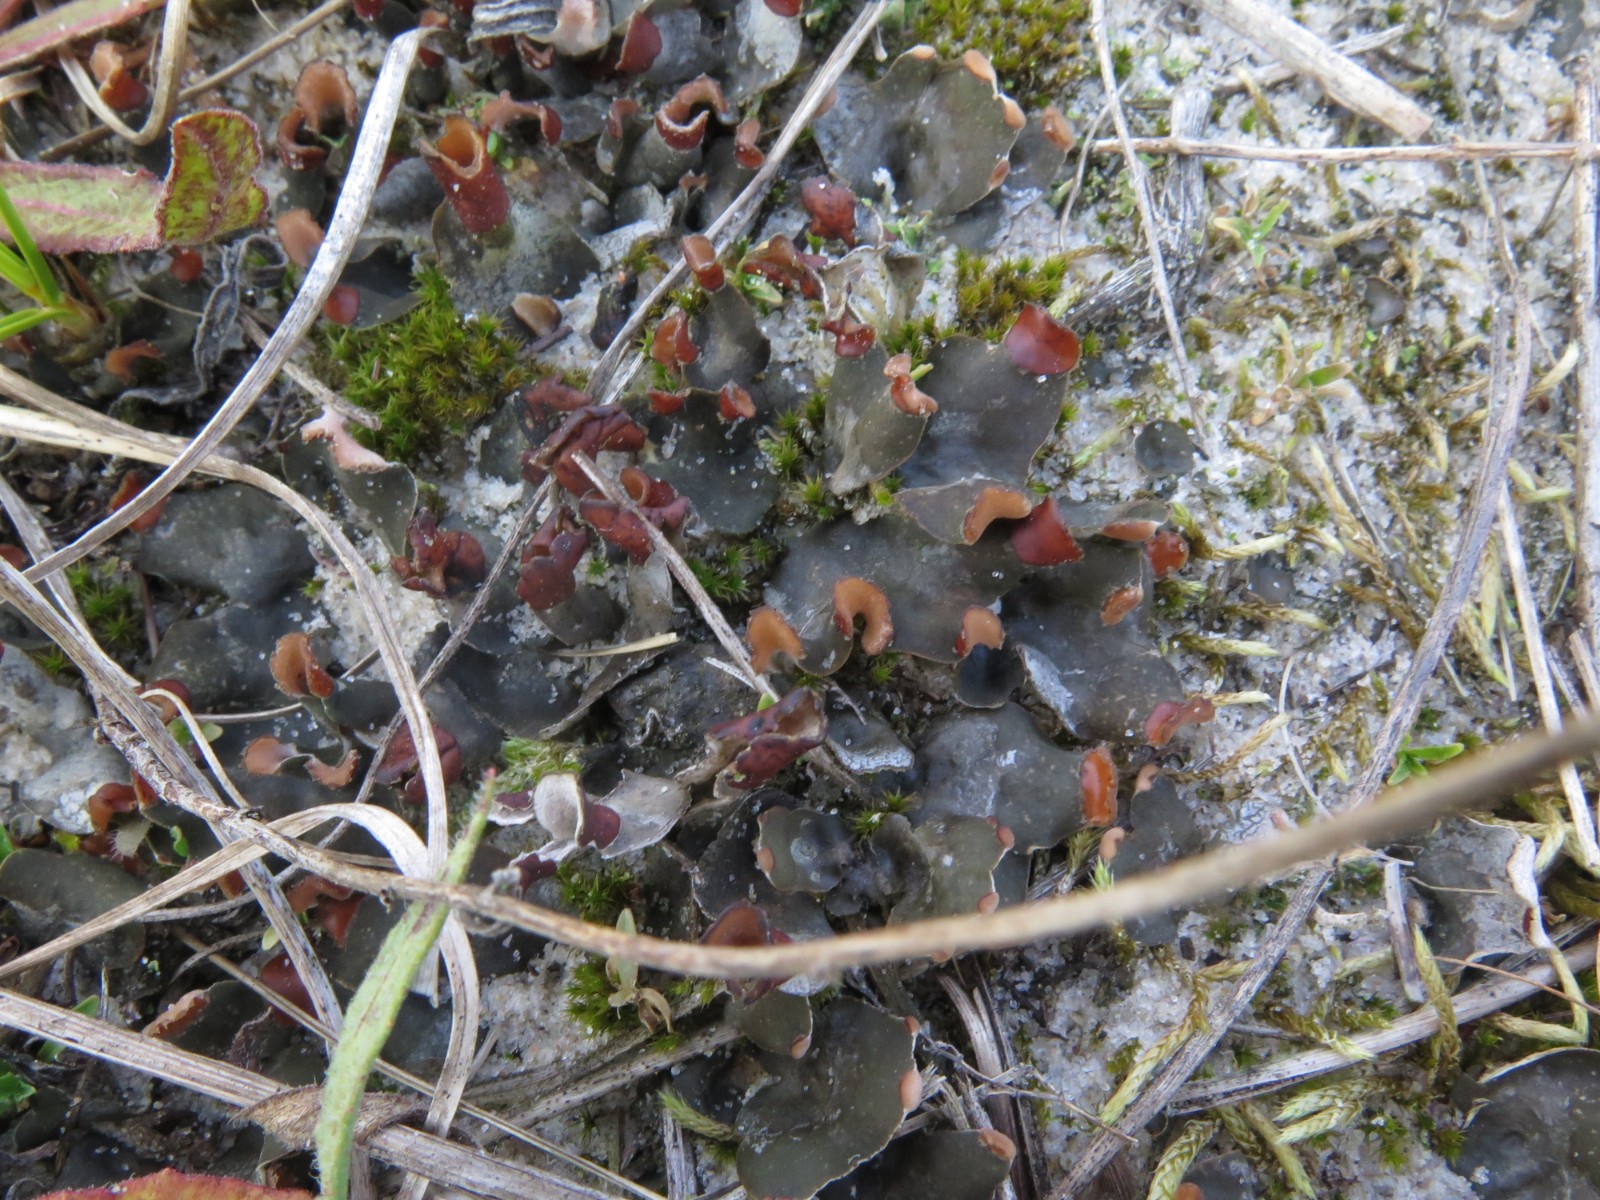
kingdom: Fungi
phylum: Ascomycota
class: Lecanoromycetes
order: Peltigerales
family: Peltigeraceae
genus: Peltigera
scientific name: Peltigera didactyla
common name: liden skjoldlav
